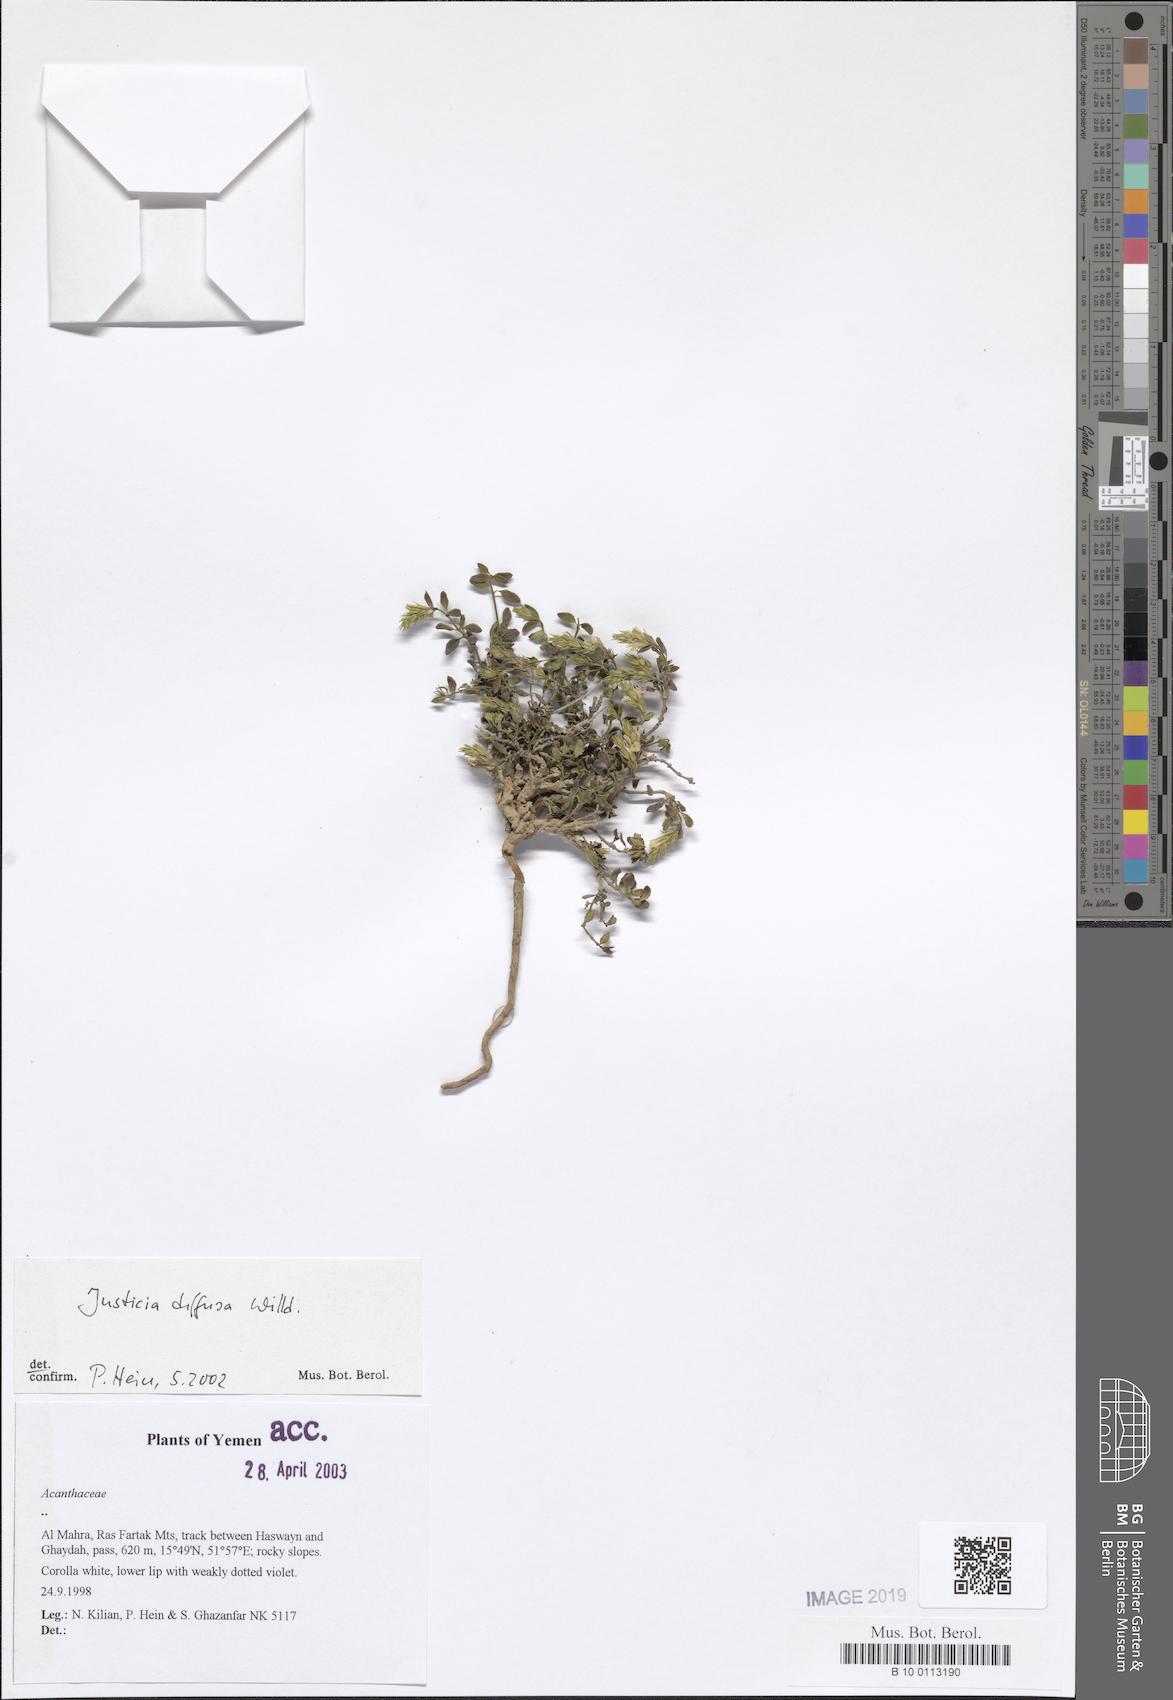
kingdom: Plantae
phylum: Tracheophyta
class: Magnoliopsida
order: Lamiales
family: Acanthaceae
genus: Rostellularia
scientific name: Rostellularia diffusa
